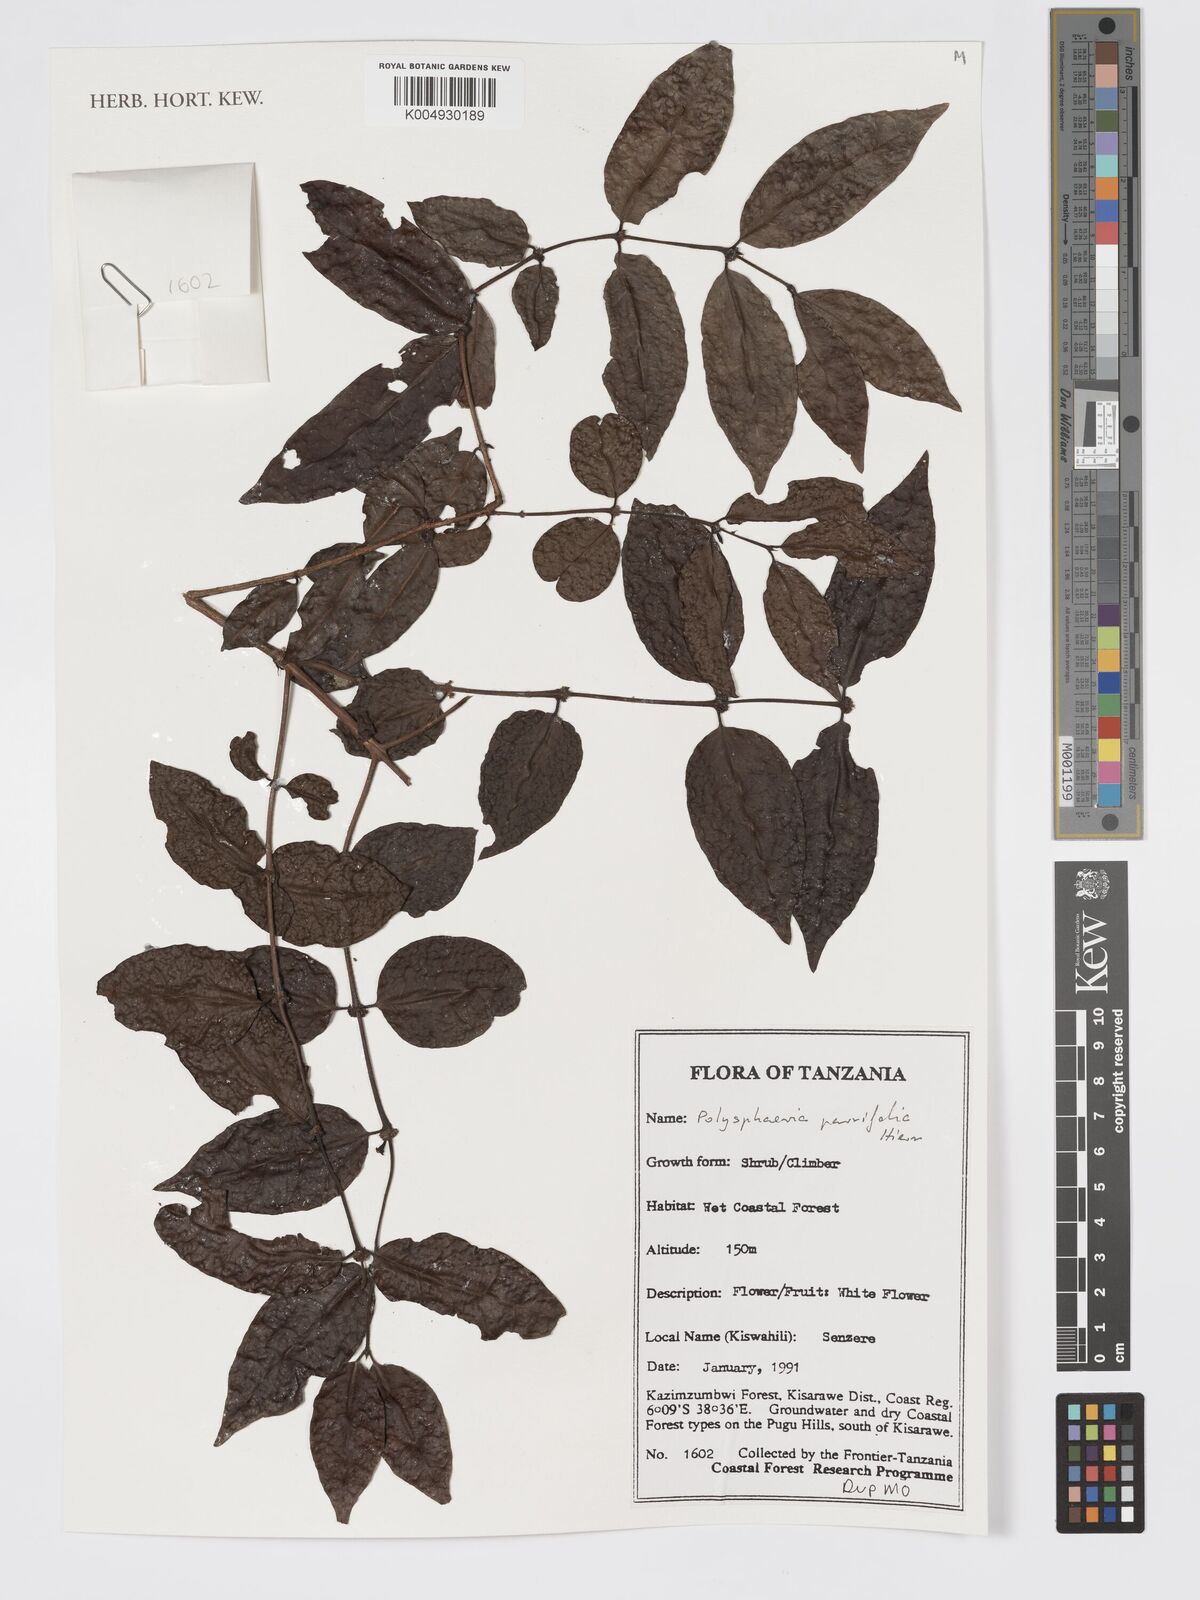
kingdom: Plantae
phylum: Tracheophyta
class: Magnoliopsida
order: Gentianales
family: Rubiaceae
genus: Polysphaeria
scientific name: Polysphaeria parvifolia
